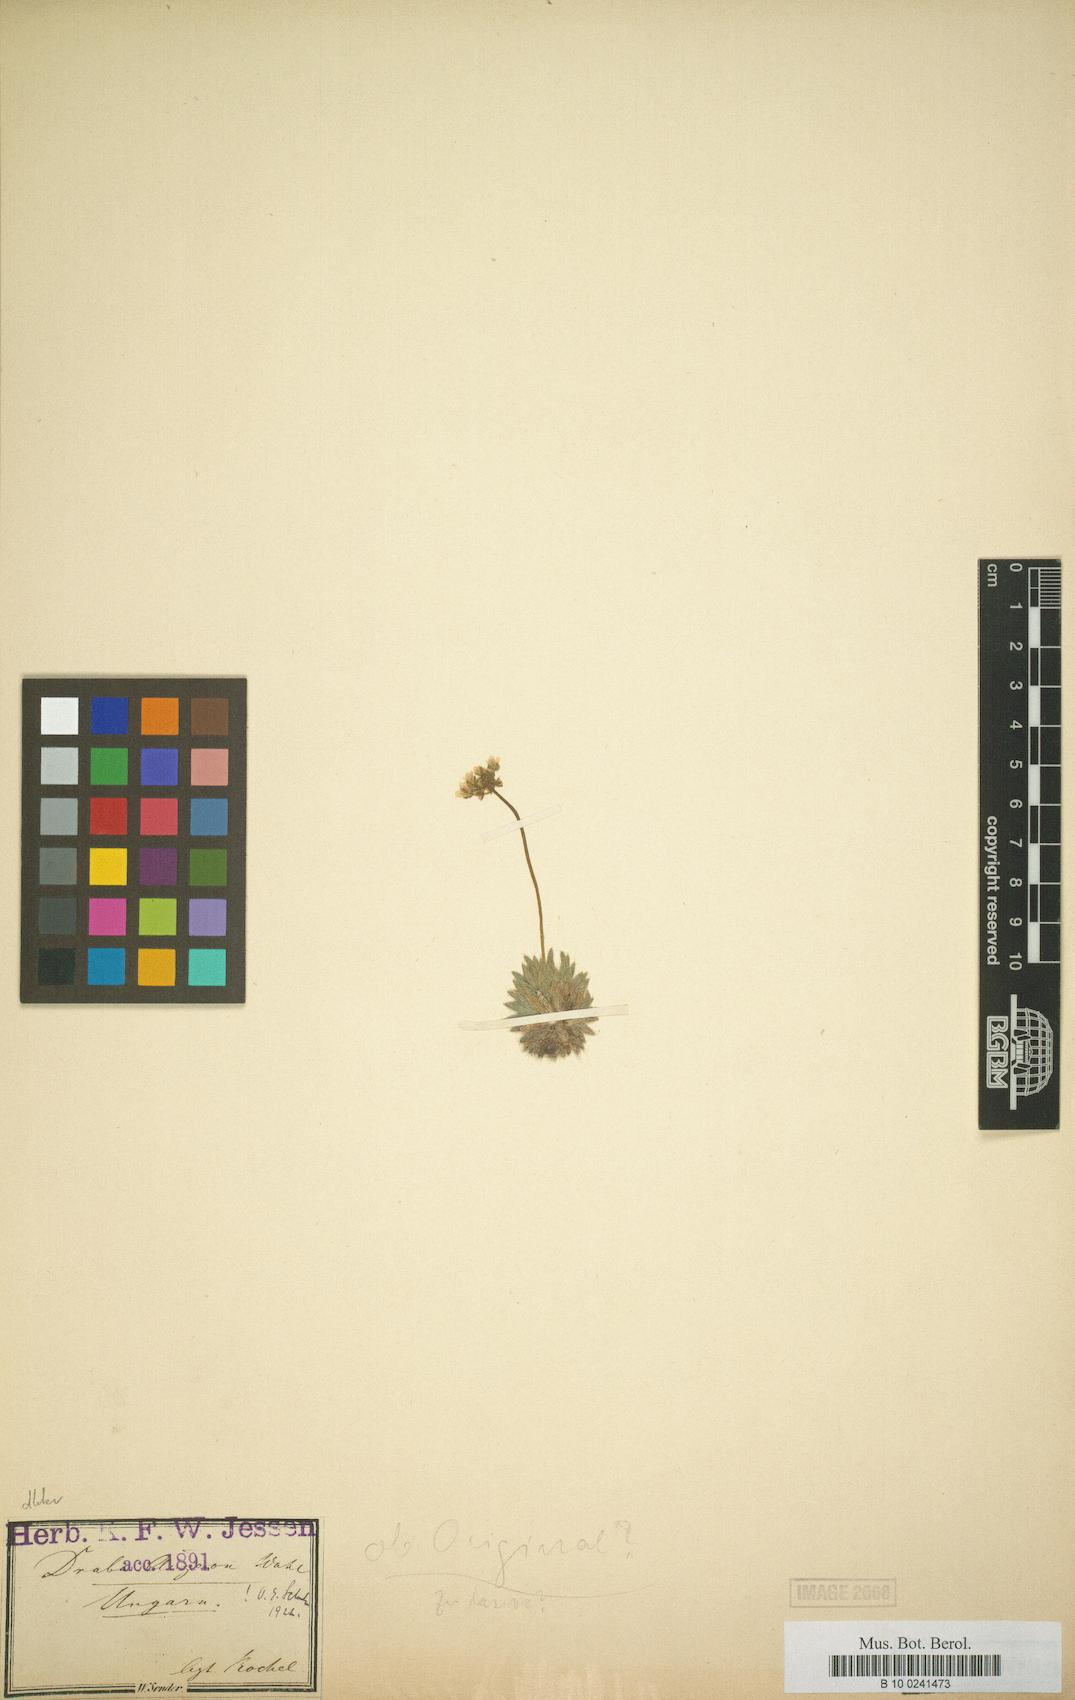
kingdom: Plantae
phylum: Tracheophyta
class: Magnoliopsida
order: Brassicales
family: Brassicaceae
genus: Draba
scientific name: Draba lasiocarpa
